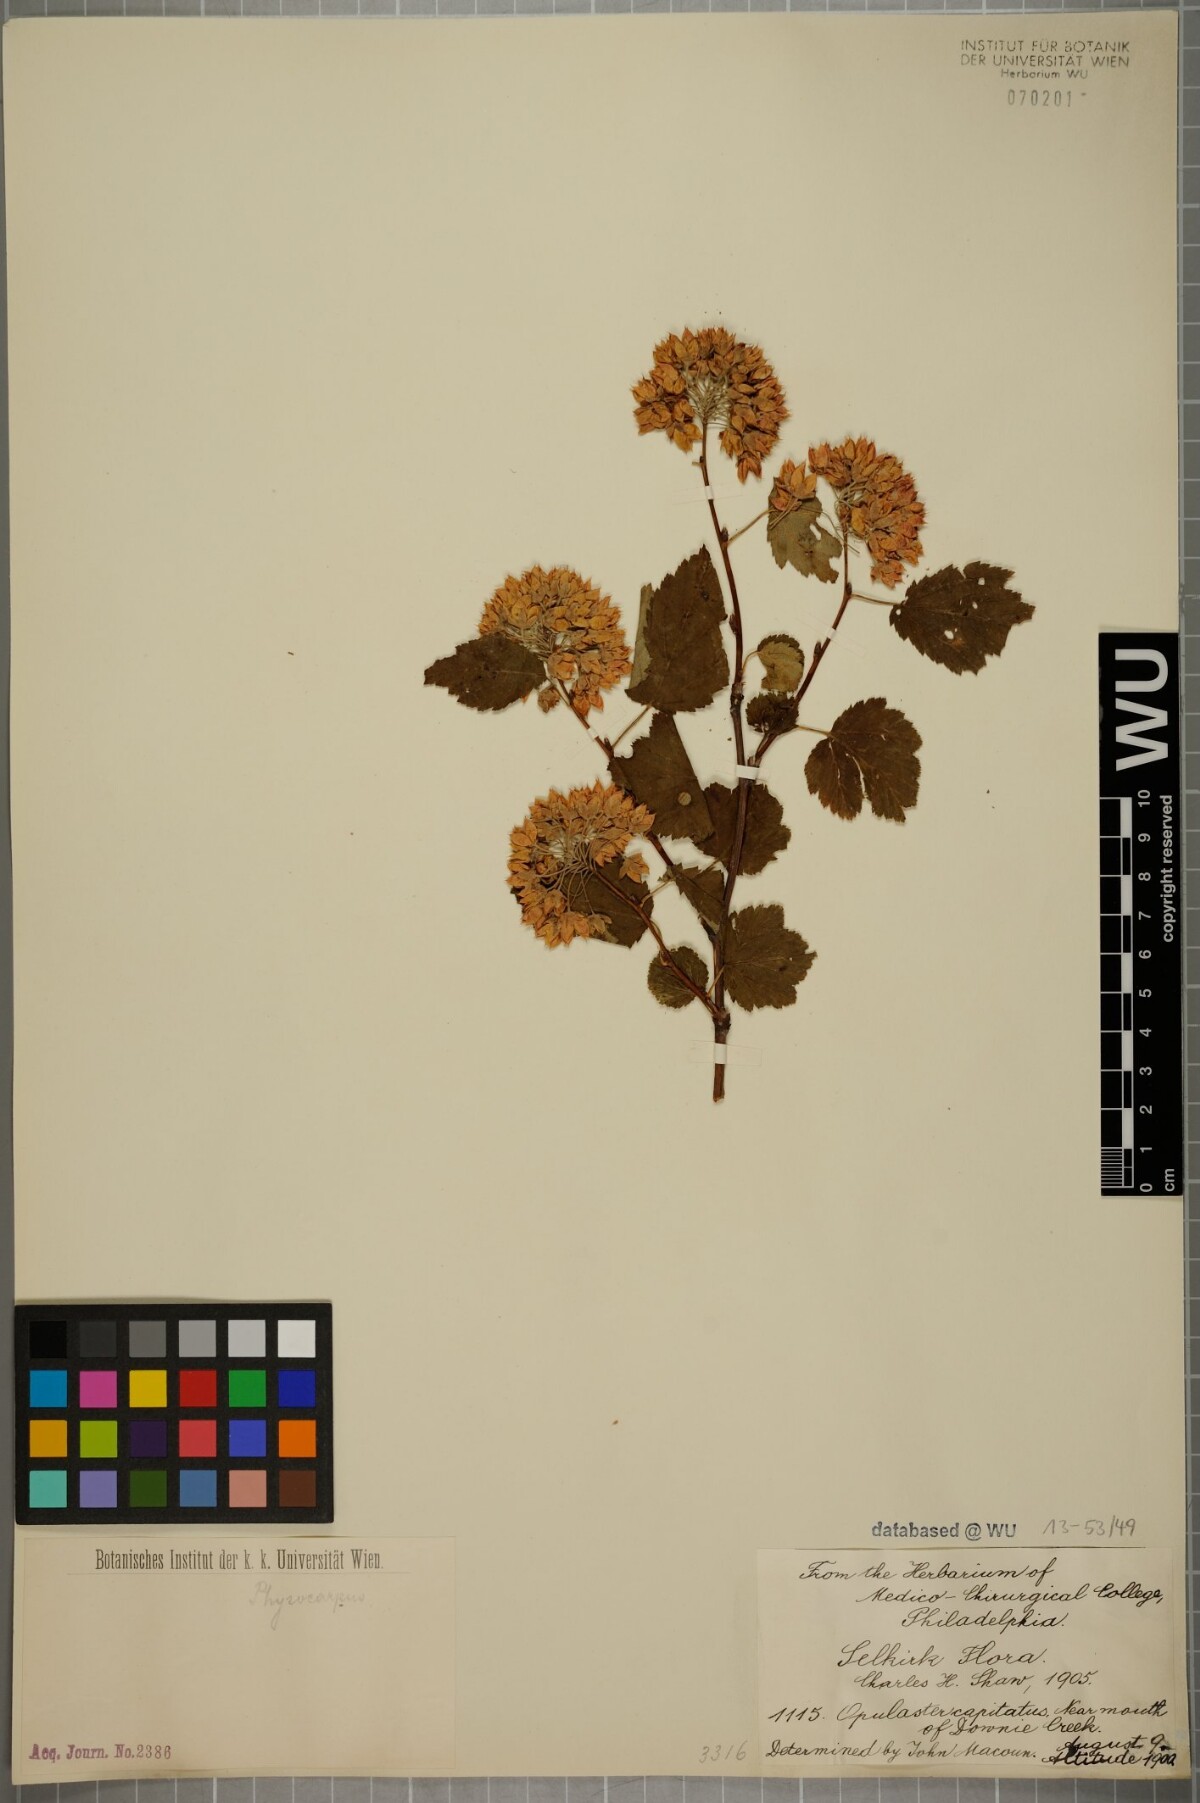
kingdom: Plantae
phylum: Tracheophyta
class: Magnoliopsida
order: Rosales
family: Rosaceae
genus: Physocarpus
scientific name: Physocarpus capitatus
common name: Pacific ninebark
